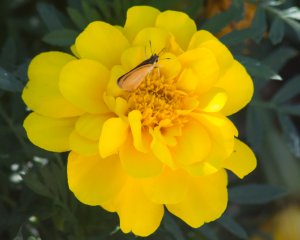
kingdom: Animalia
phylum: Arthropoda
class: Insecta
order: Lepidoptera
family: Hesperiidae
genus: Ancyloxypha
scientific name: Ancyloxypha numitor
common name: Least Skipper
